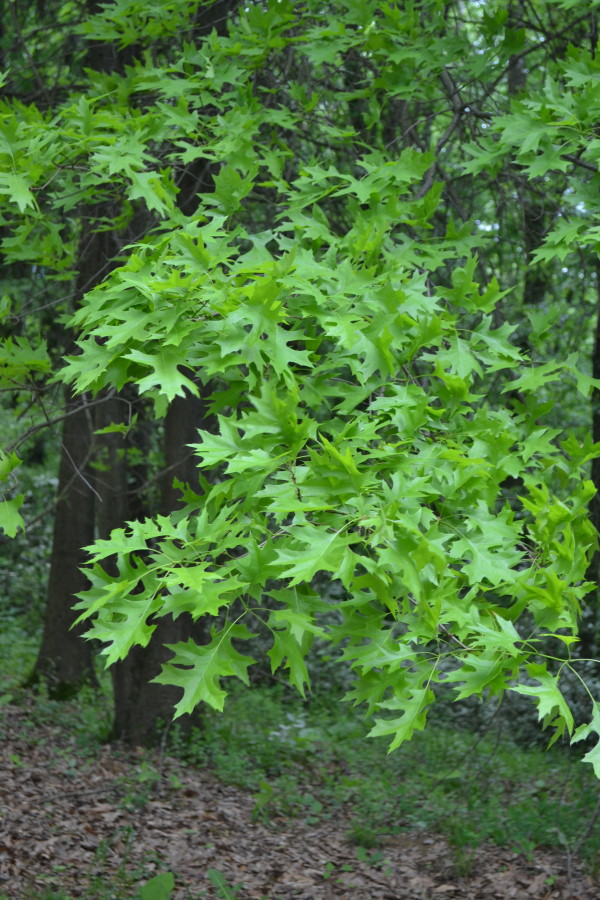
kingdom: Plantae
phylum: Tracheophyta
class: Magnoliopsida
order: Fagales
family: Fagaceae
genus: Quercus
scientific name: Quercus palustris
